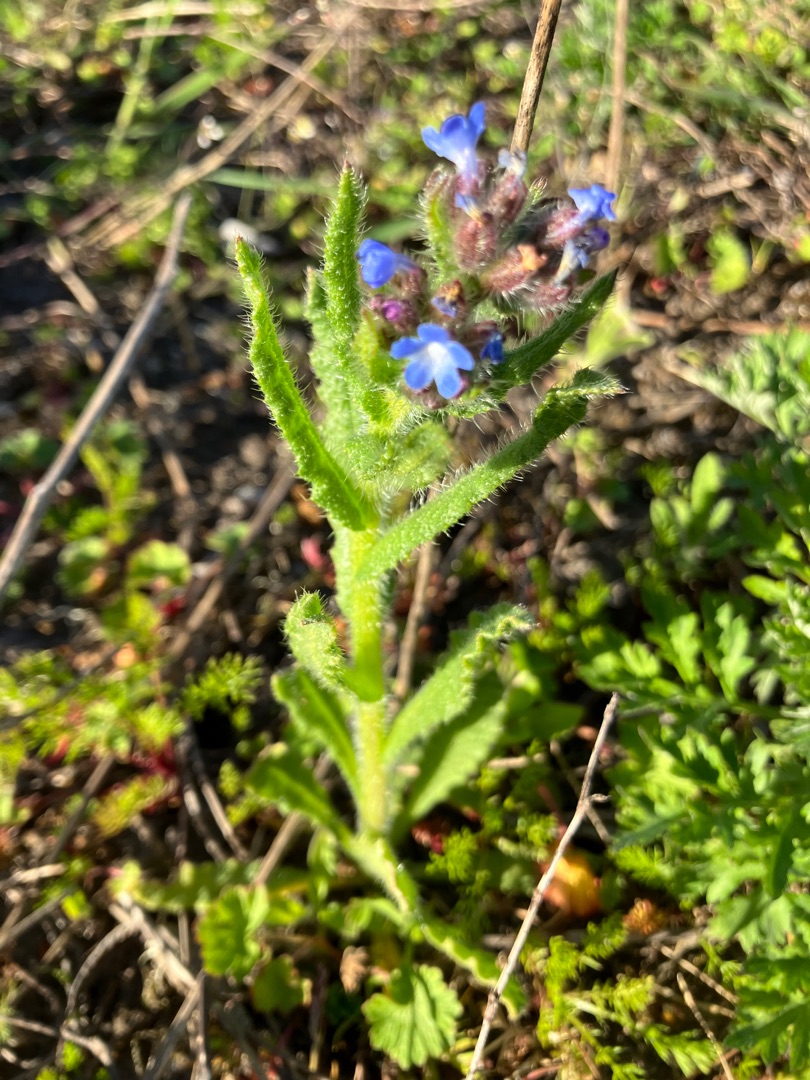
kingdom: Plantae
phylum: Tracheophyta
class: Magnoliopsida
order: Boraginales
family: Boraginaceae
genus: Lycopsis
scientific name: Lycopsis arvensis
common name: Krumhals
